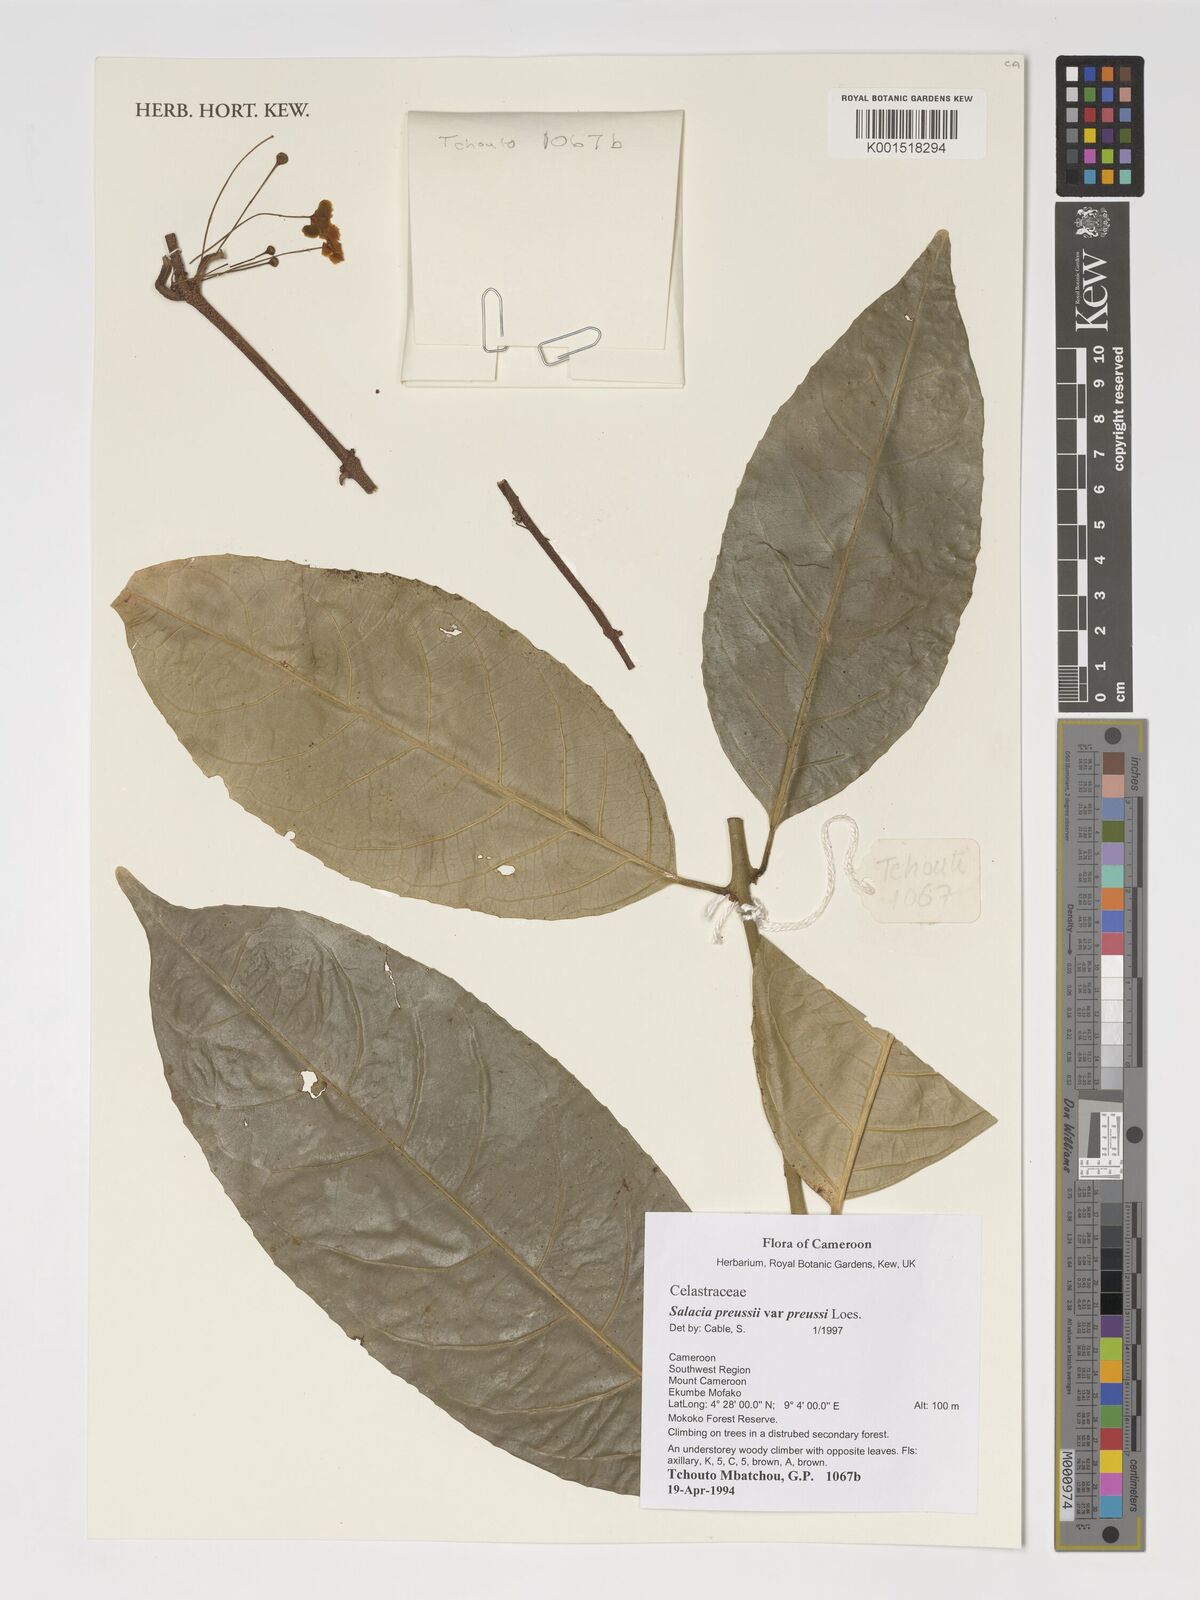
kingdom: Plantae
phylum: Tracheophyta
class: Magnoliopsida
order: Celastrales
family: Celastraceae
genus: Salacia
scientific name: Salacia preussii
